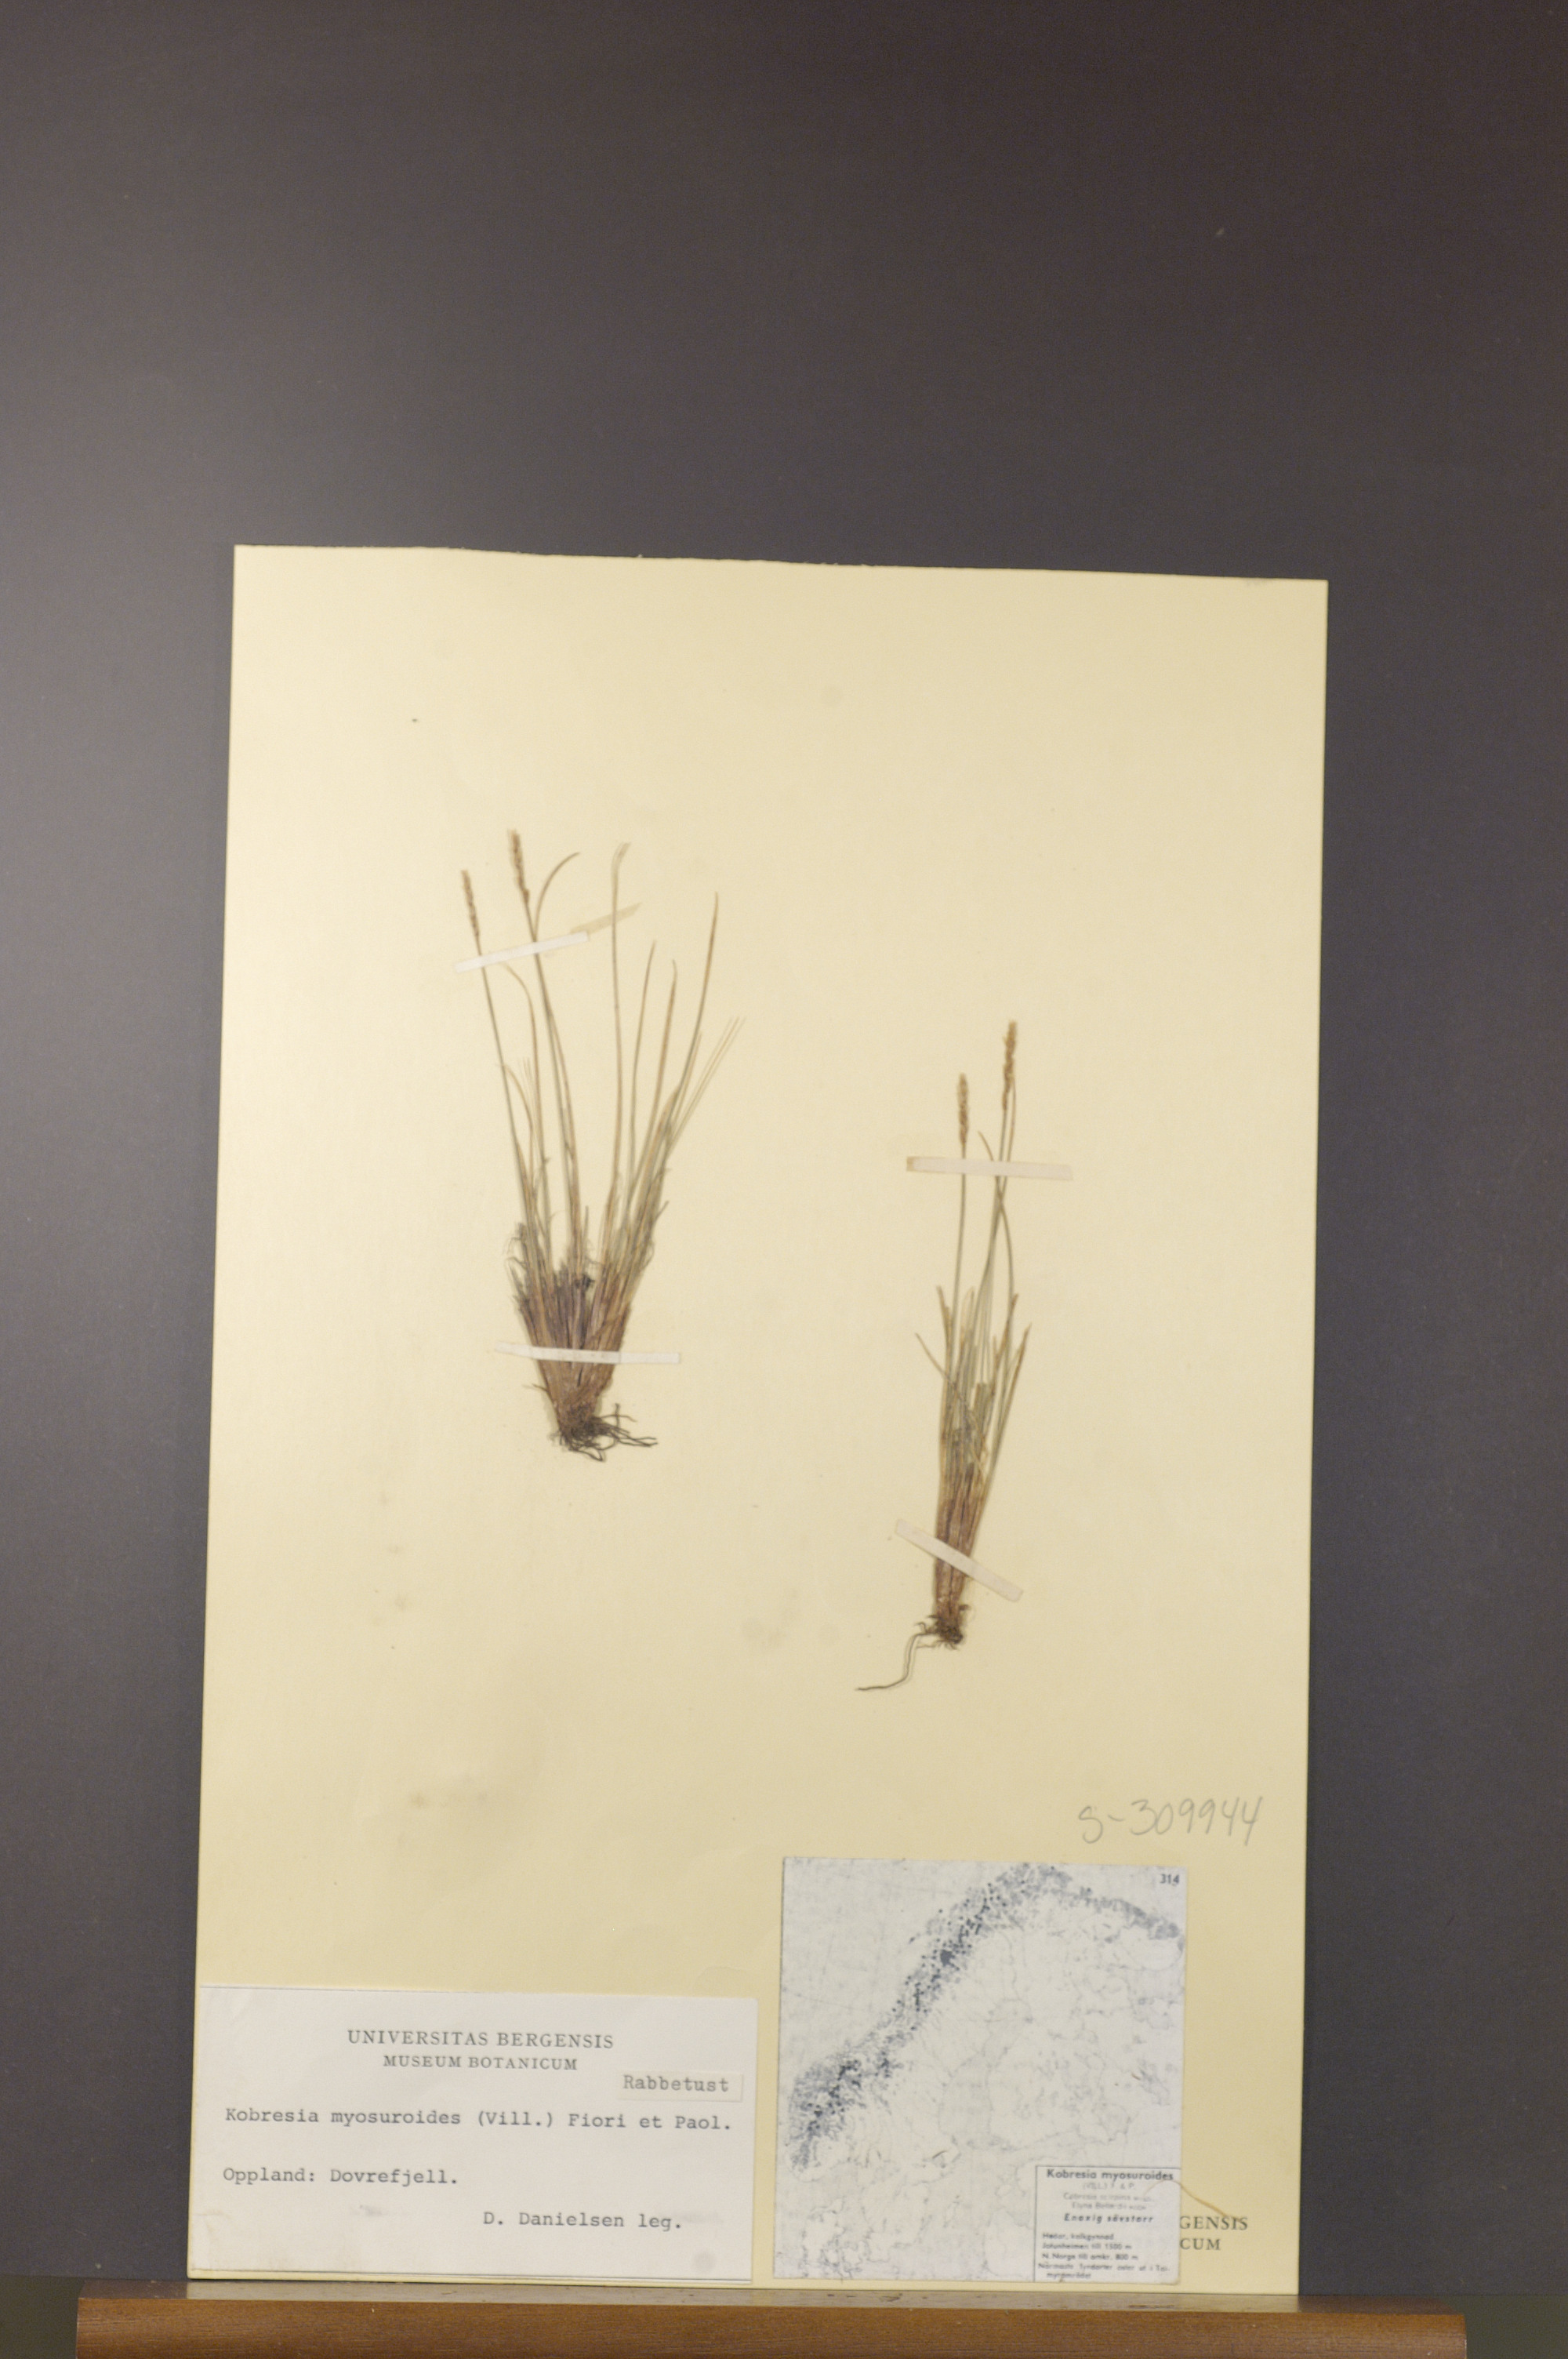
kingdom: Plantae
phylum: Tracheophyta
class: Liliopsida
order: Poales
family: Cyperaceae
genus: Carex
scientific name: Carex myosuroides
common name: Bellard's bog sedge
